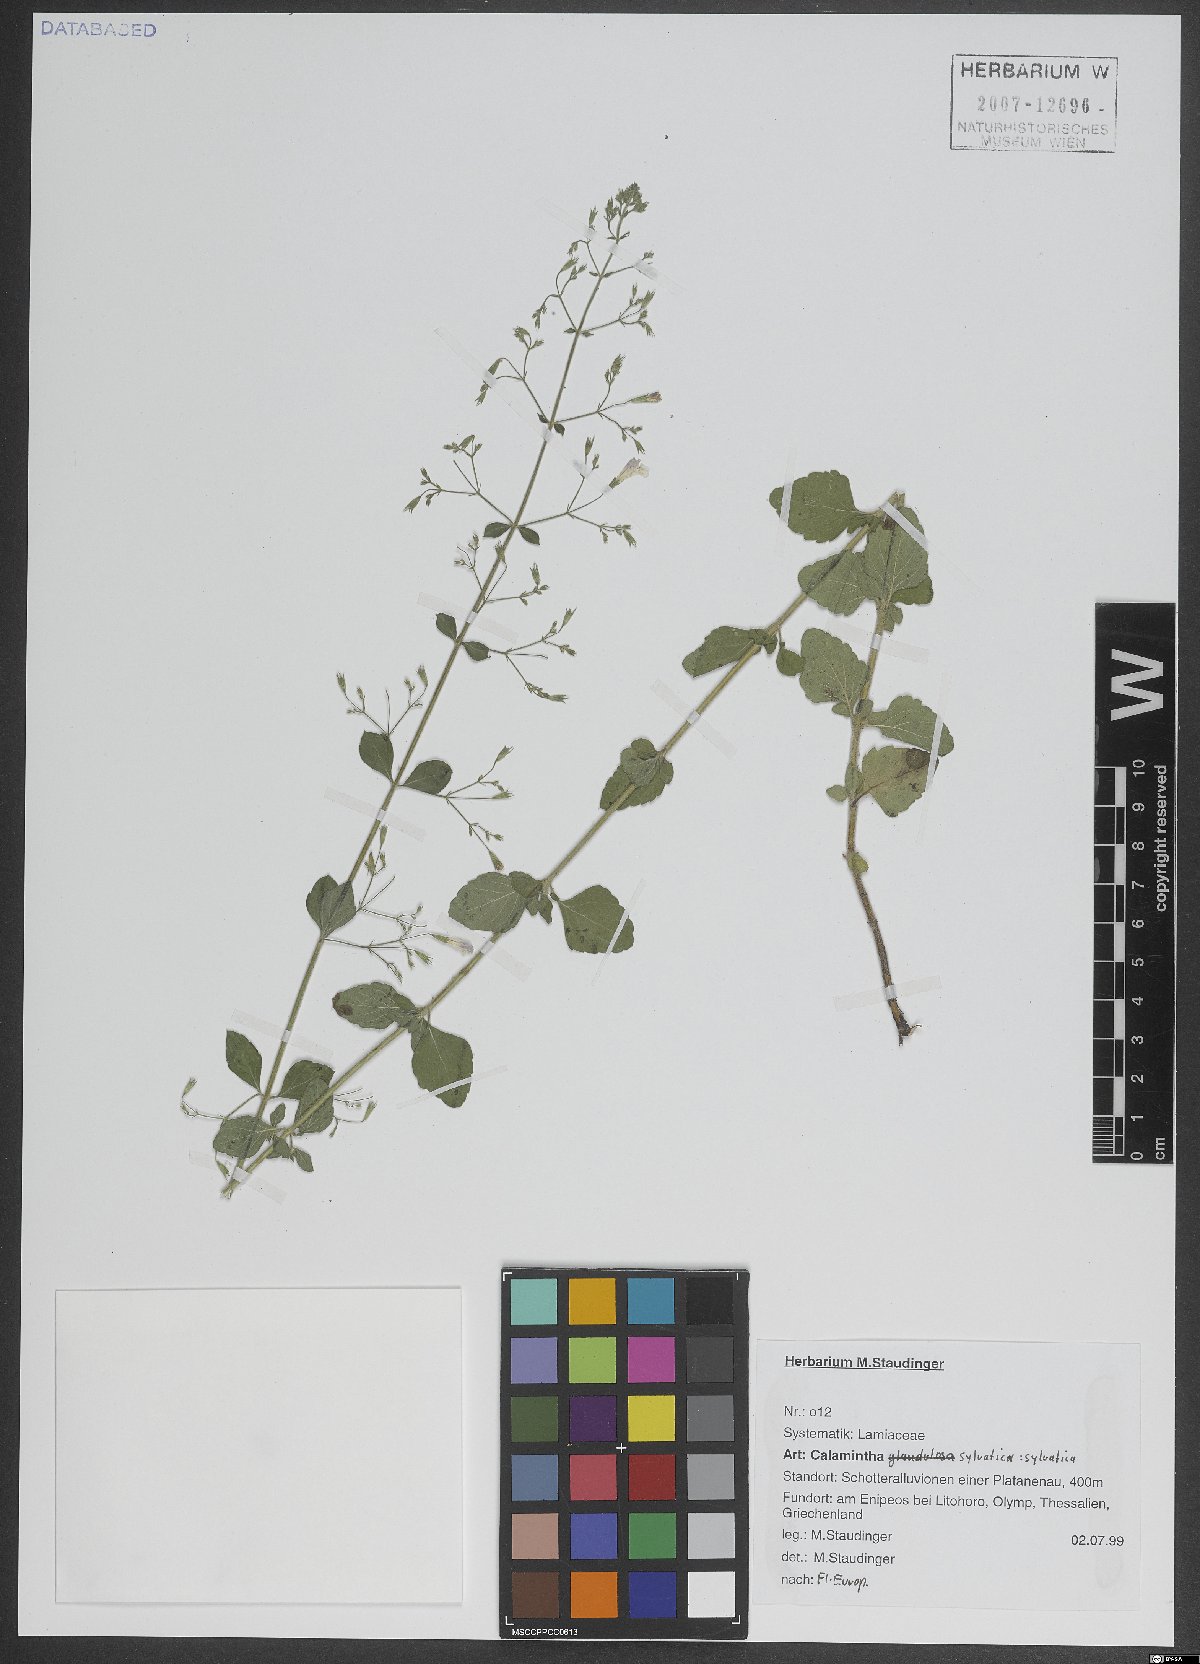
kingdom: Plantae
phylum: Tracheophyta
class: Magnoliopsida
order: Lamiales
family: Lamiaceae
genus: Clinopodium
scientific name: Clinopodium menthifolium
